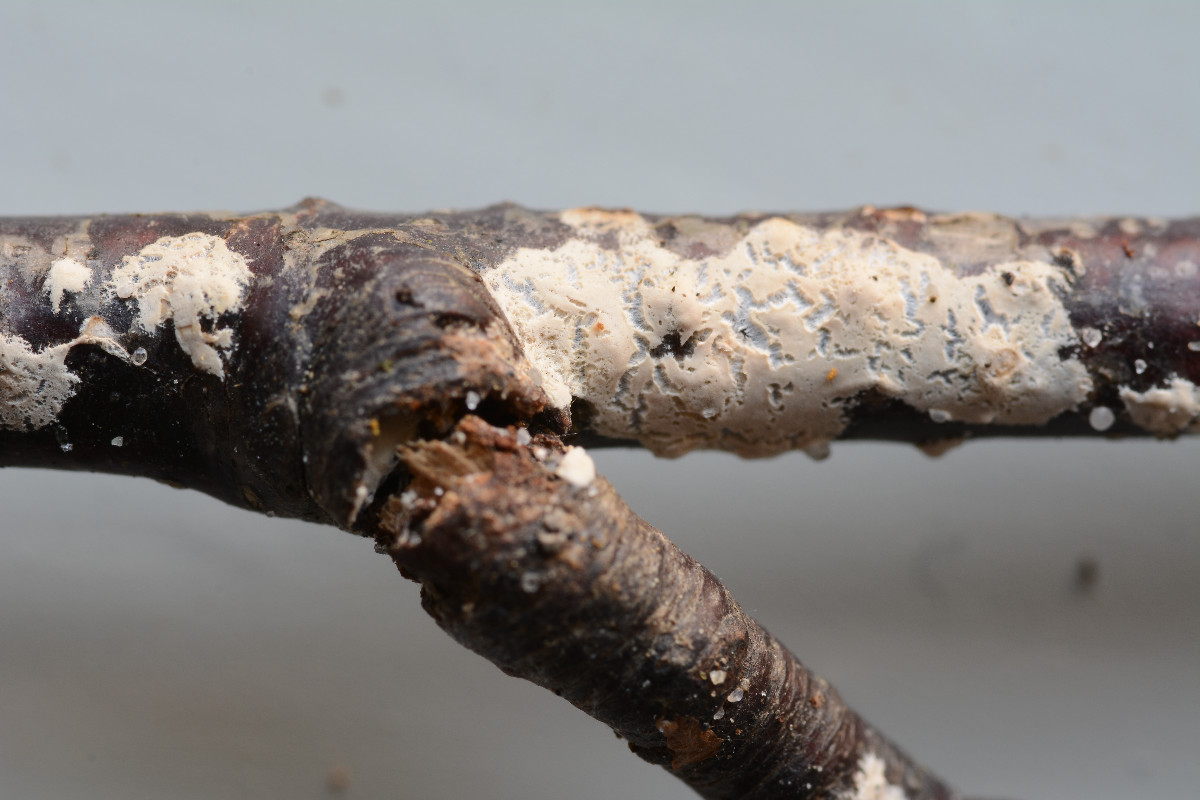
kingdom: Fungi
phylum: Basidiomycota
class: Agaricomycetes
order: Agaricales
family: Physalacriaceae
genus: Cylindrobasidium
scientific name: Cylindrobasidium evolvens
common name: sprækkehinde
